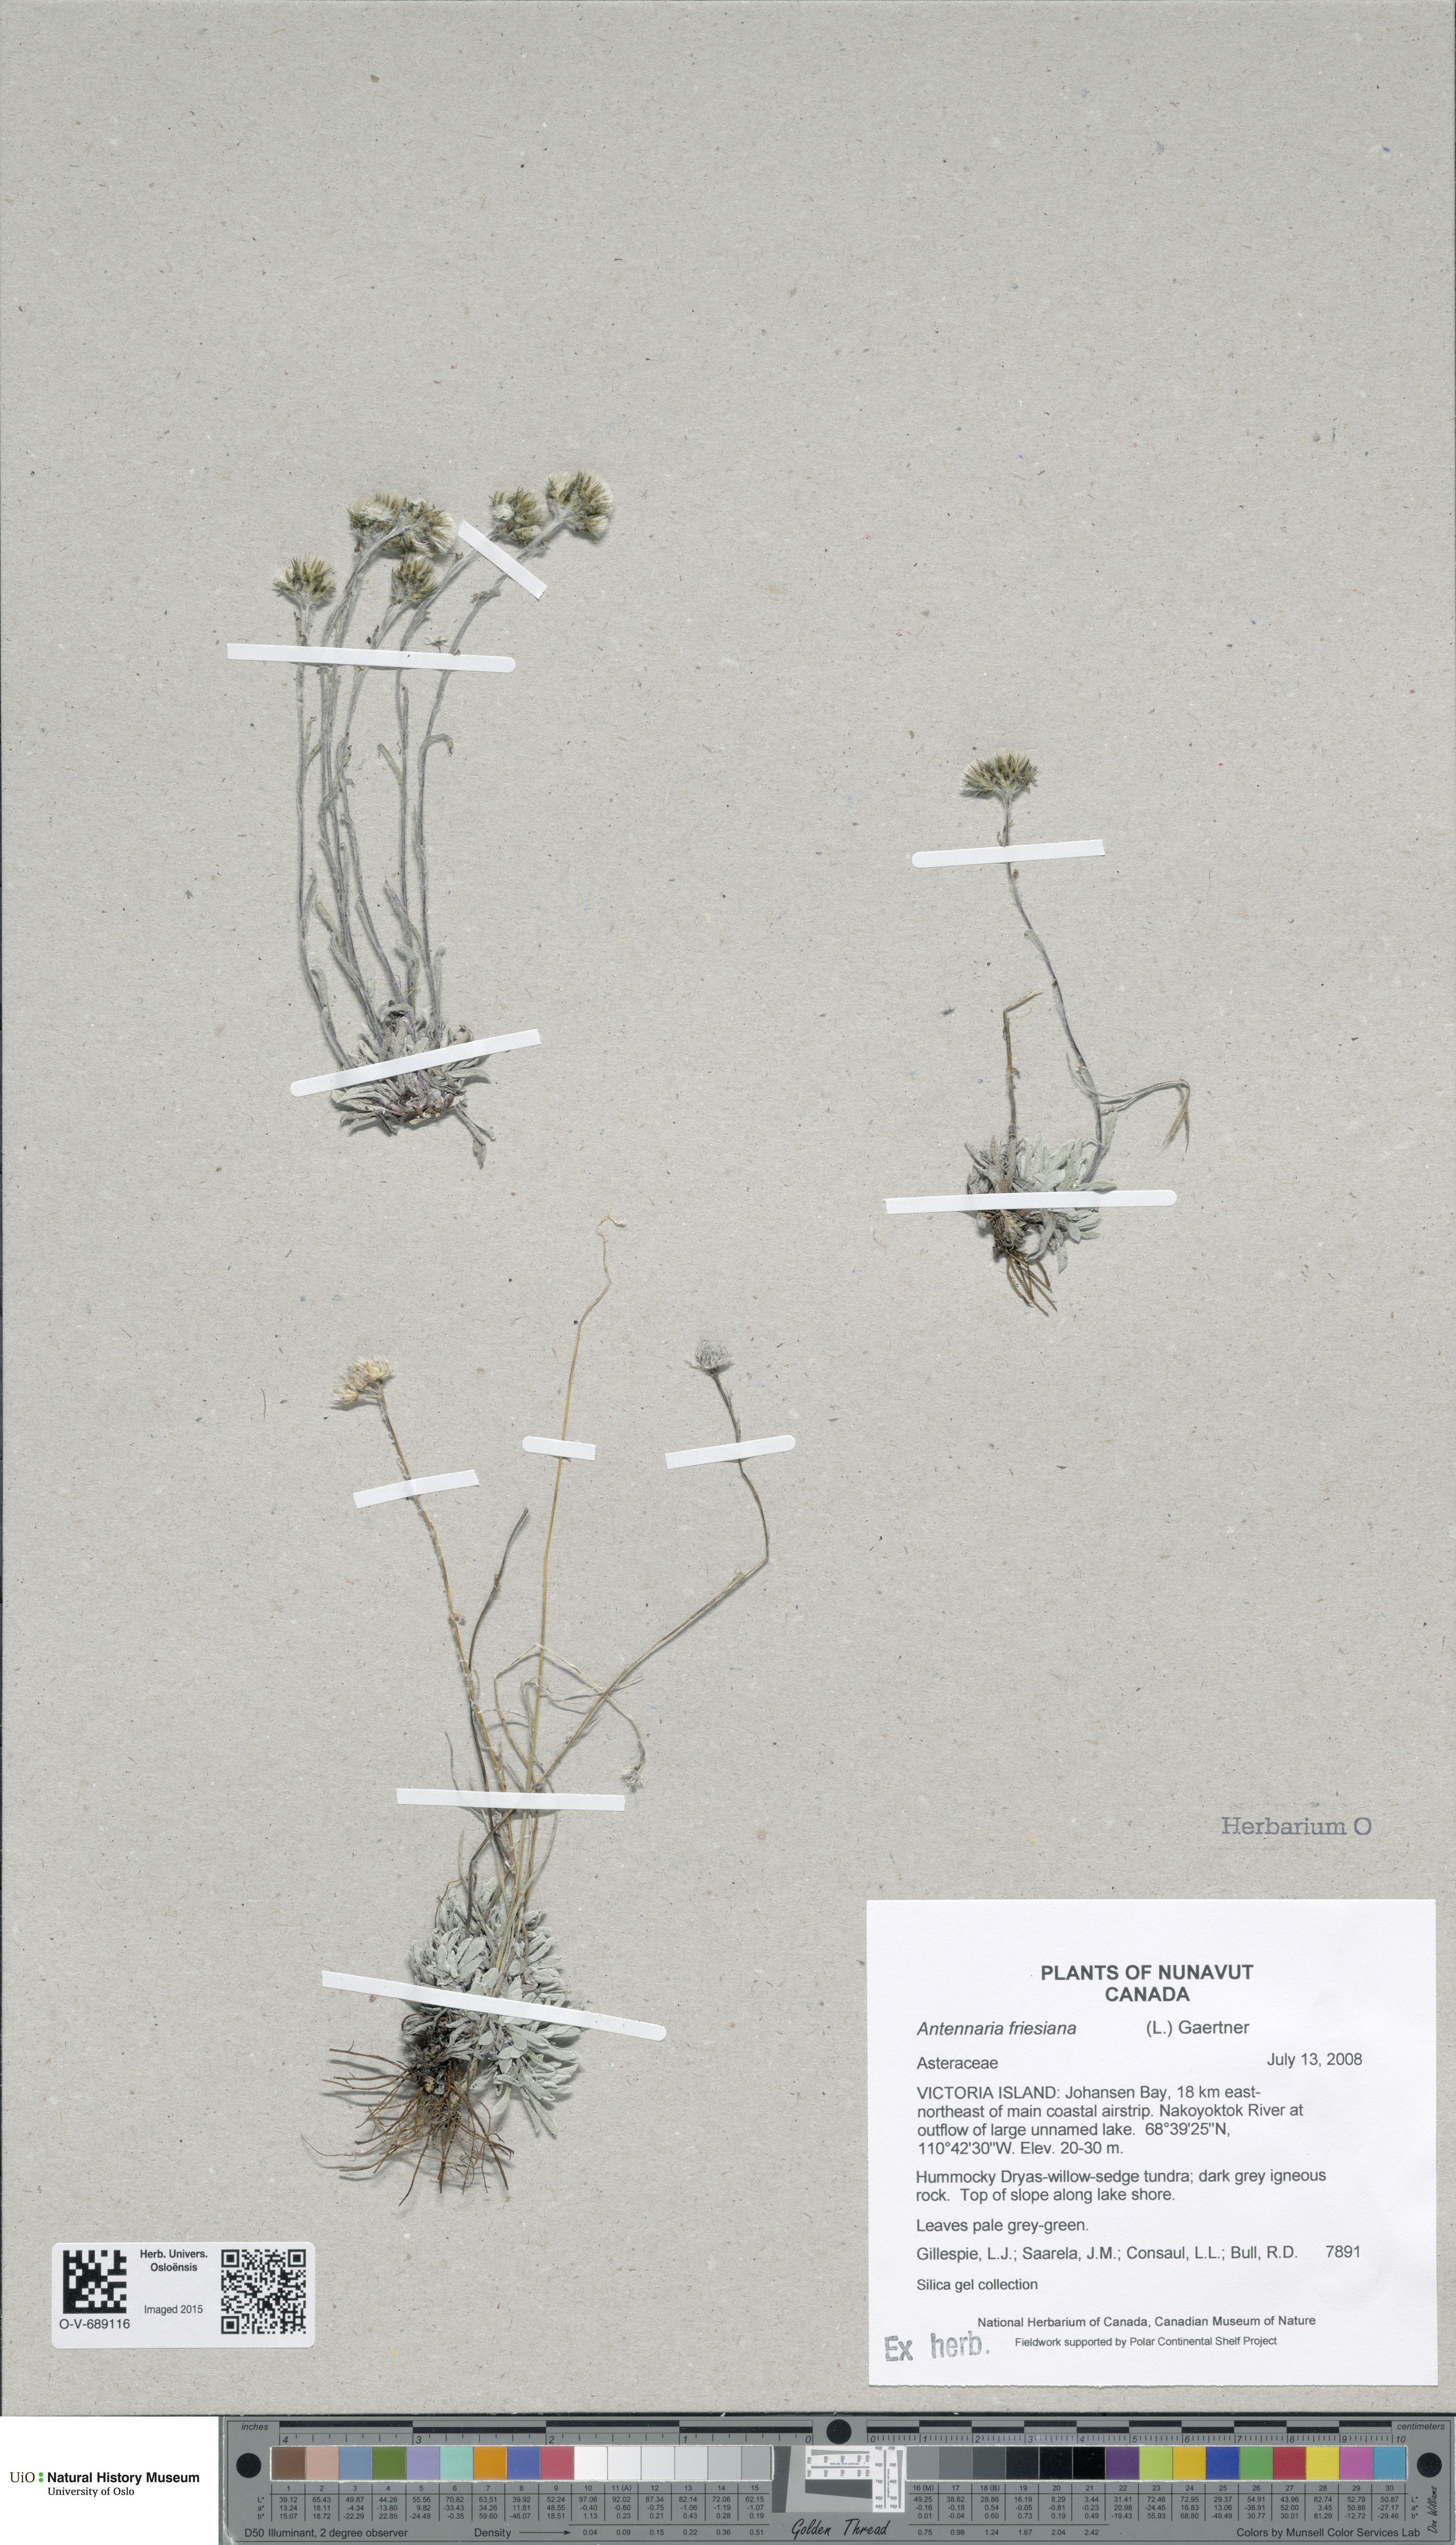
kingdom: Plantae
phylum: Tracheophyta
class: Magnoliopsida
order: Asterales
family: Asteraceae
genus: Antennaria
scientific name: Antennaria friesiana
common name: Fries' pussytoes
